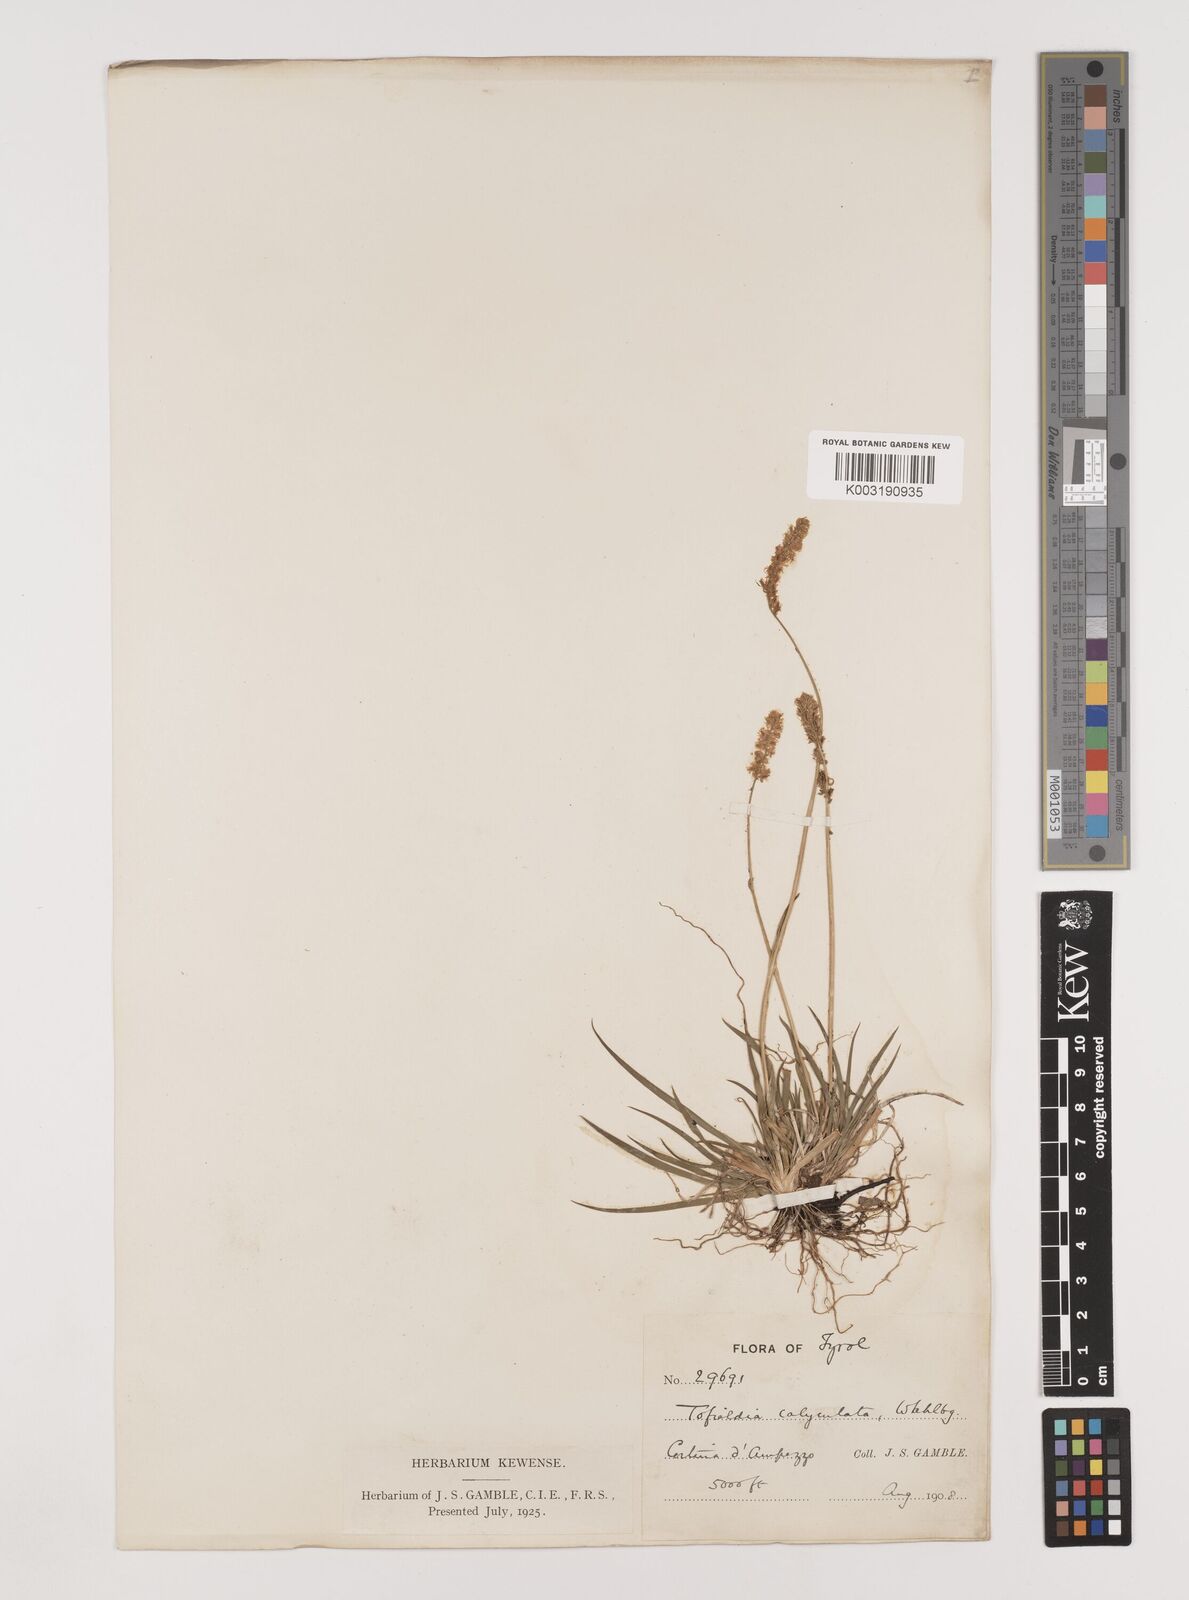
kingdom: Plantae
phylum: Tracheophyta
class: Liliopsida
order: Alismatales
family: Tofieldiaceae
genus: Tofieldia
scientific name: Tofieldia calyculata
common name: German-asphodel
